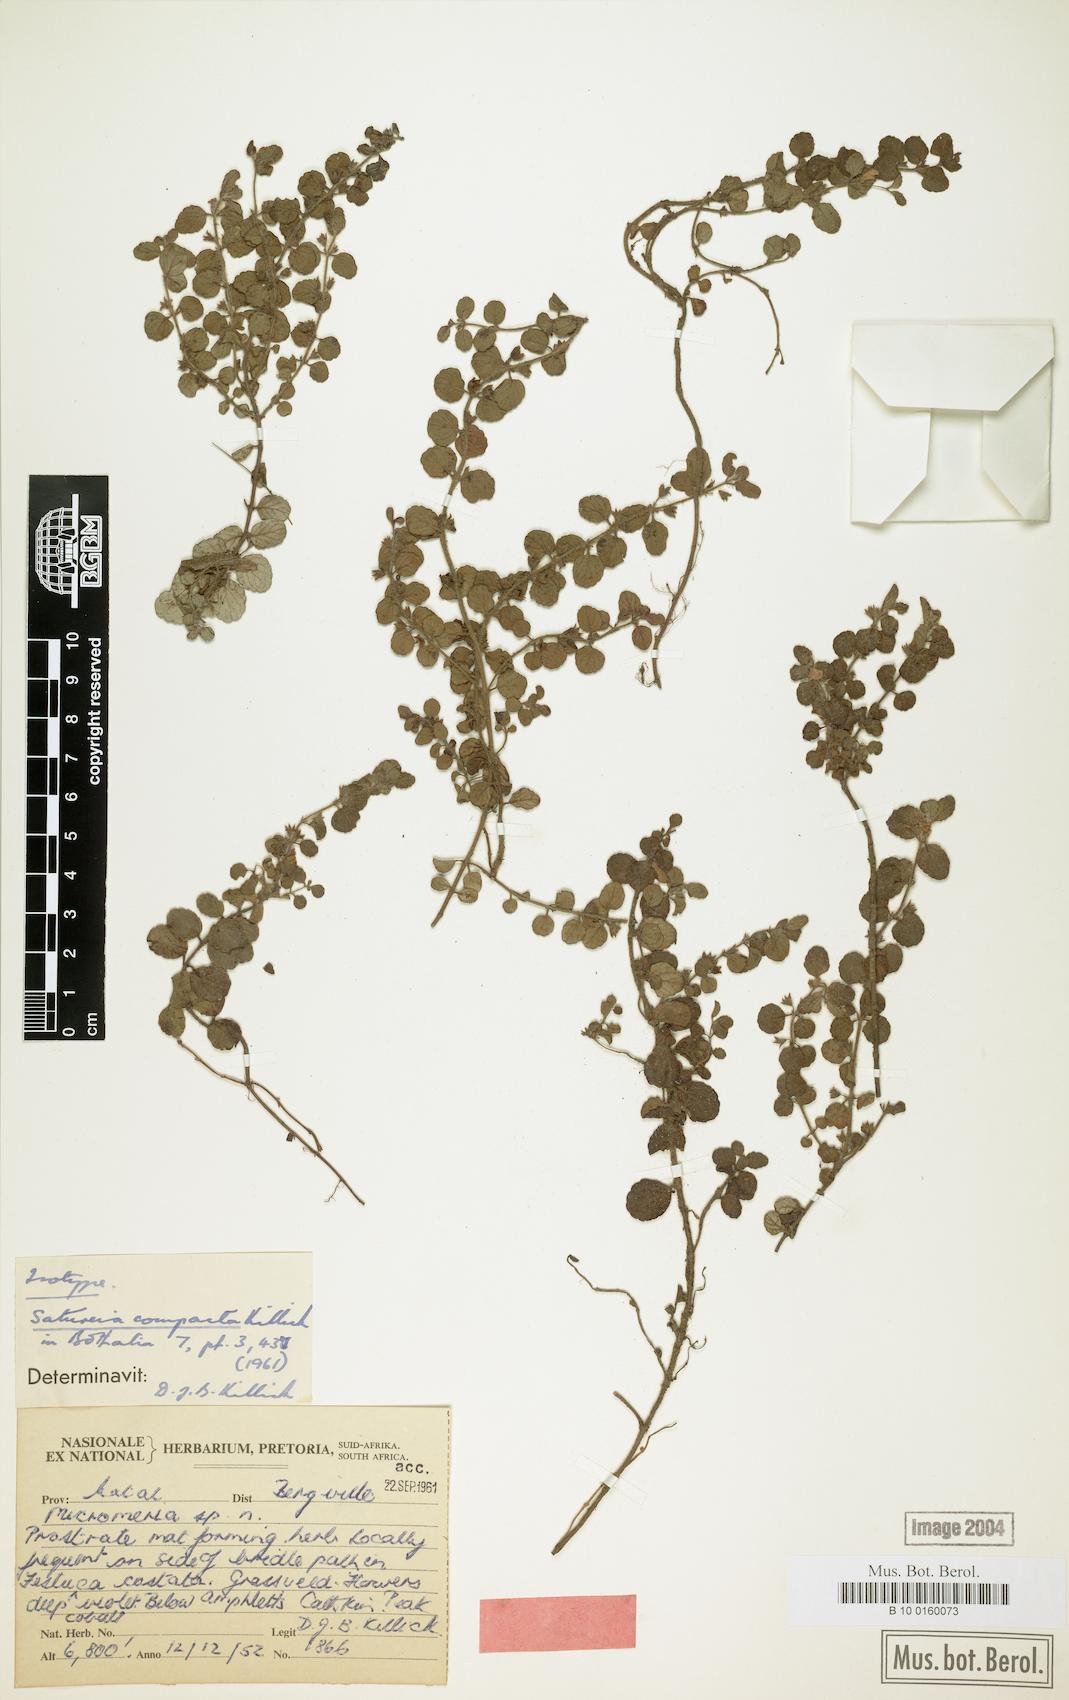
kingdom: Plantae
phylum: Tracheophyta
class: Magnoliopsida
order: Lamiales
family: Lamiaceae
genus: Killickia
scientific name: Killickia compacta
